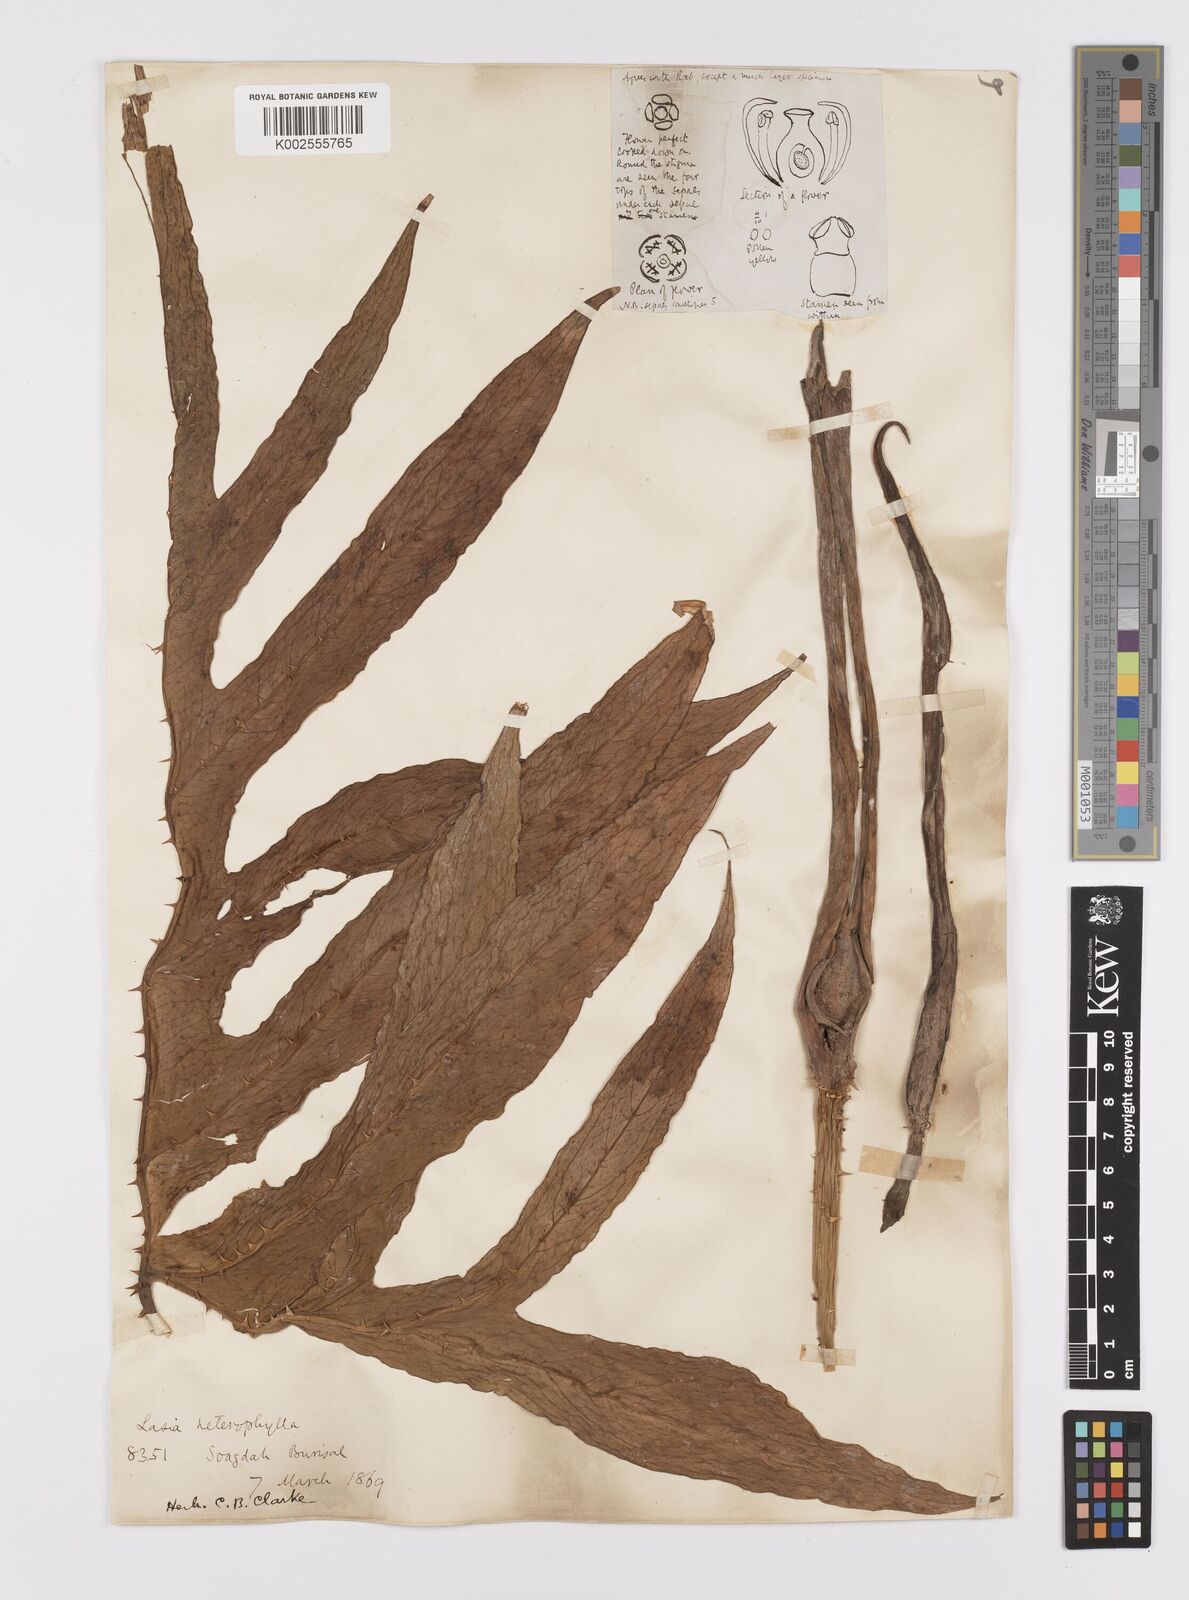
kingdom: Plantae
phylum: Tracheophyta
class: Liliopsida
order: Alismatales
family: Araceae
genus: Lasia
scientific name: Lasia spinosa
